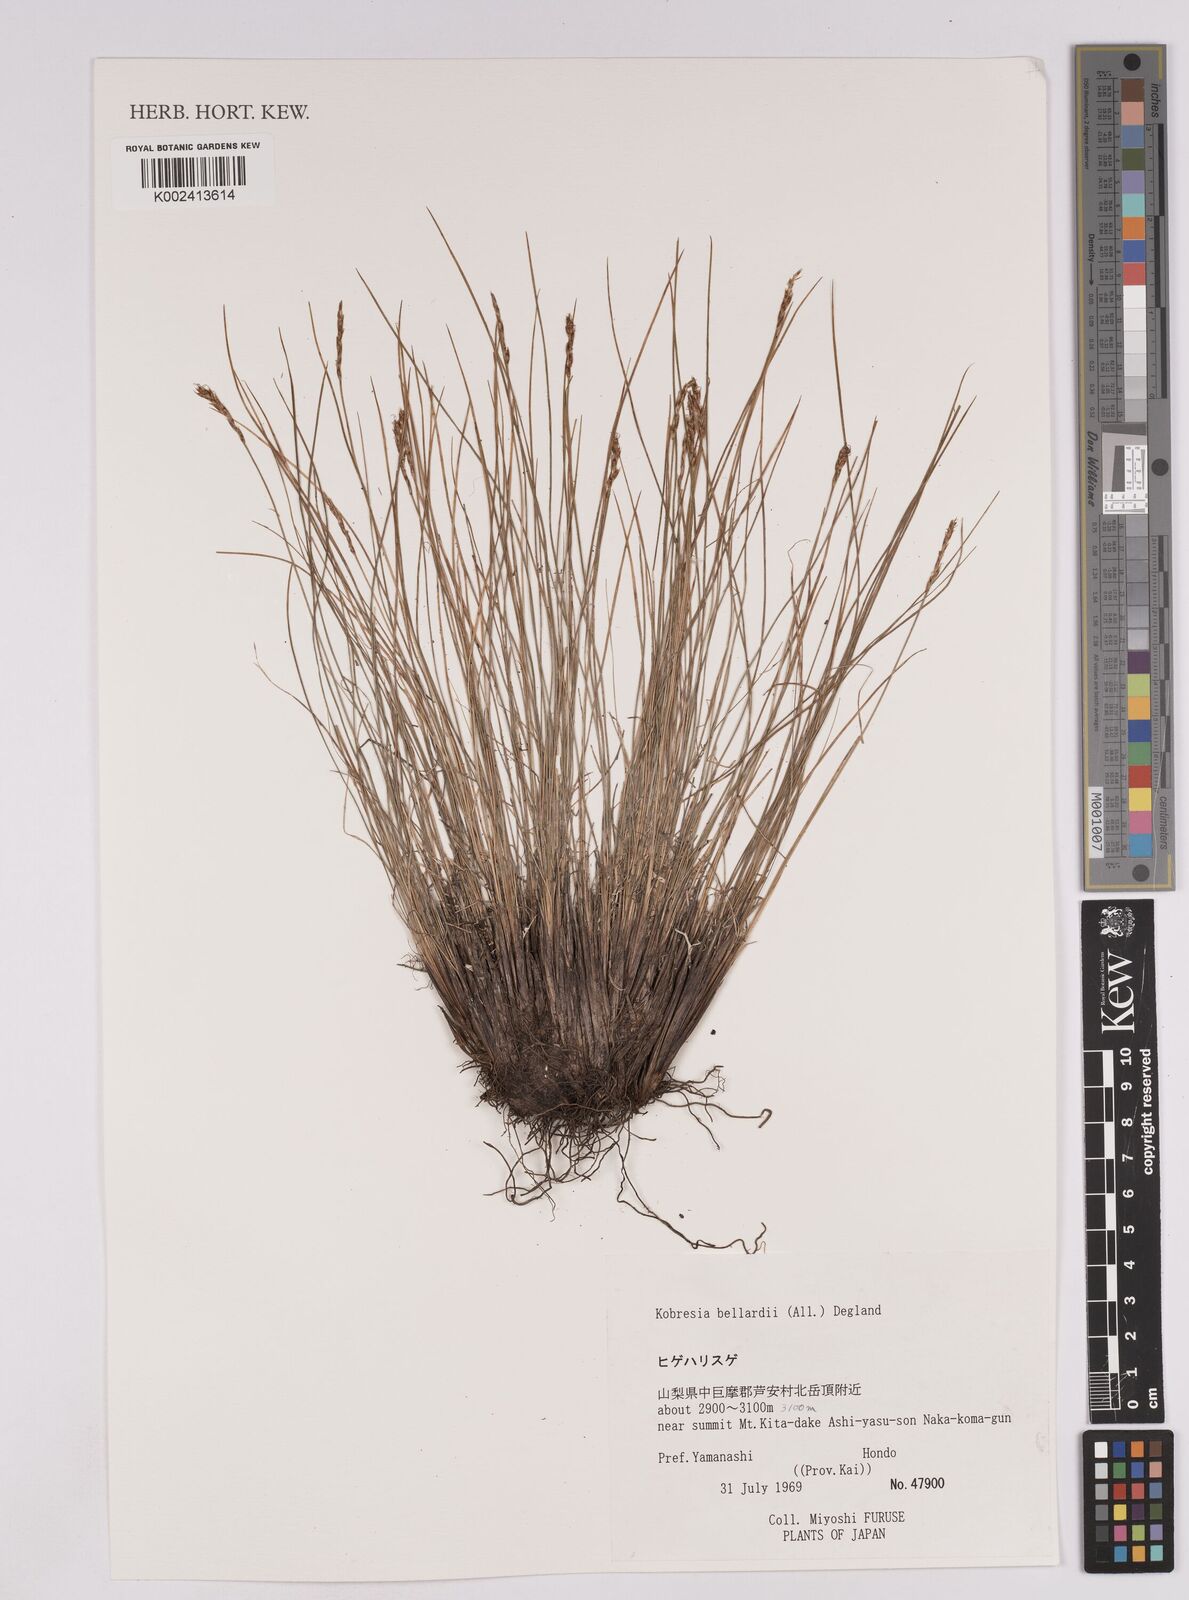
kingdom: Plantae
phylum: Tracheophyta
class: Liliopsida
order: Poales
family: Cyperaceae
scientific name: Cyperaceae
